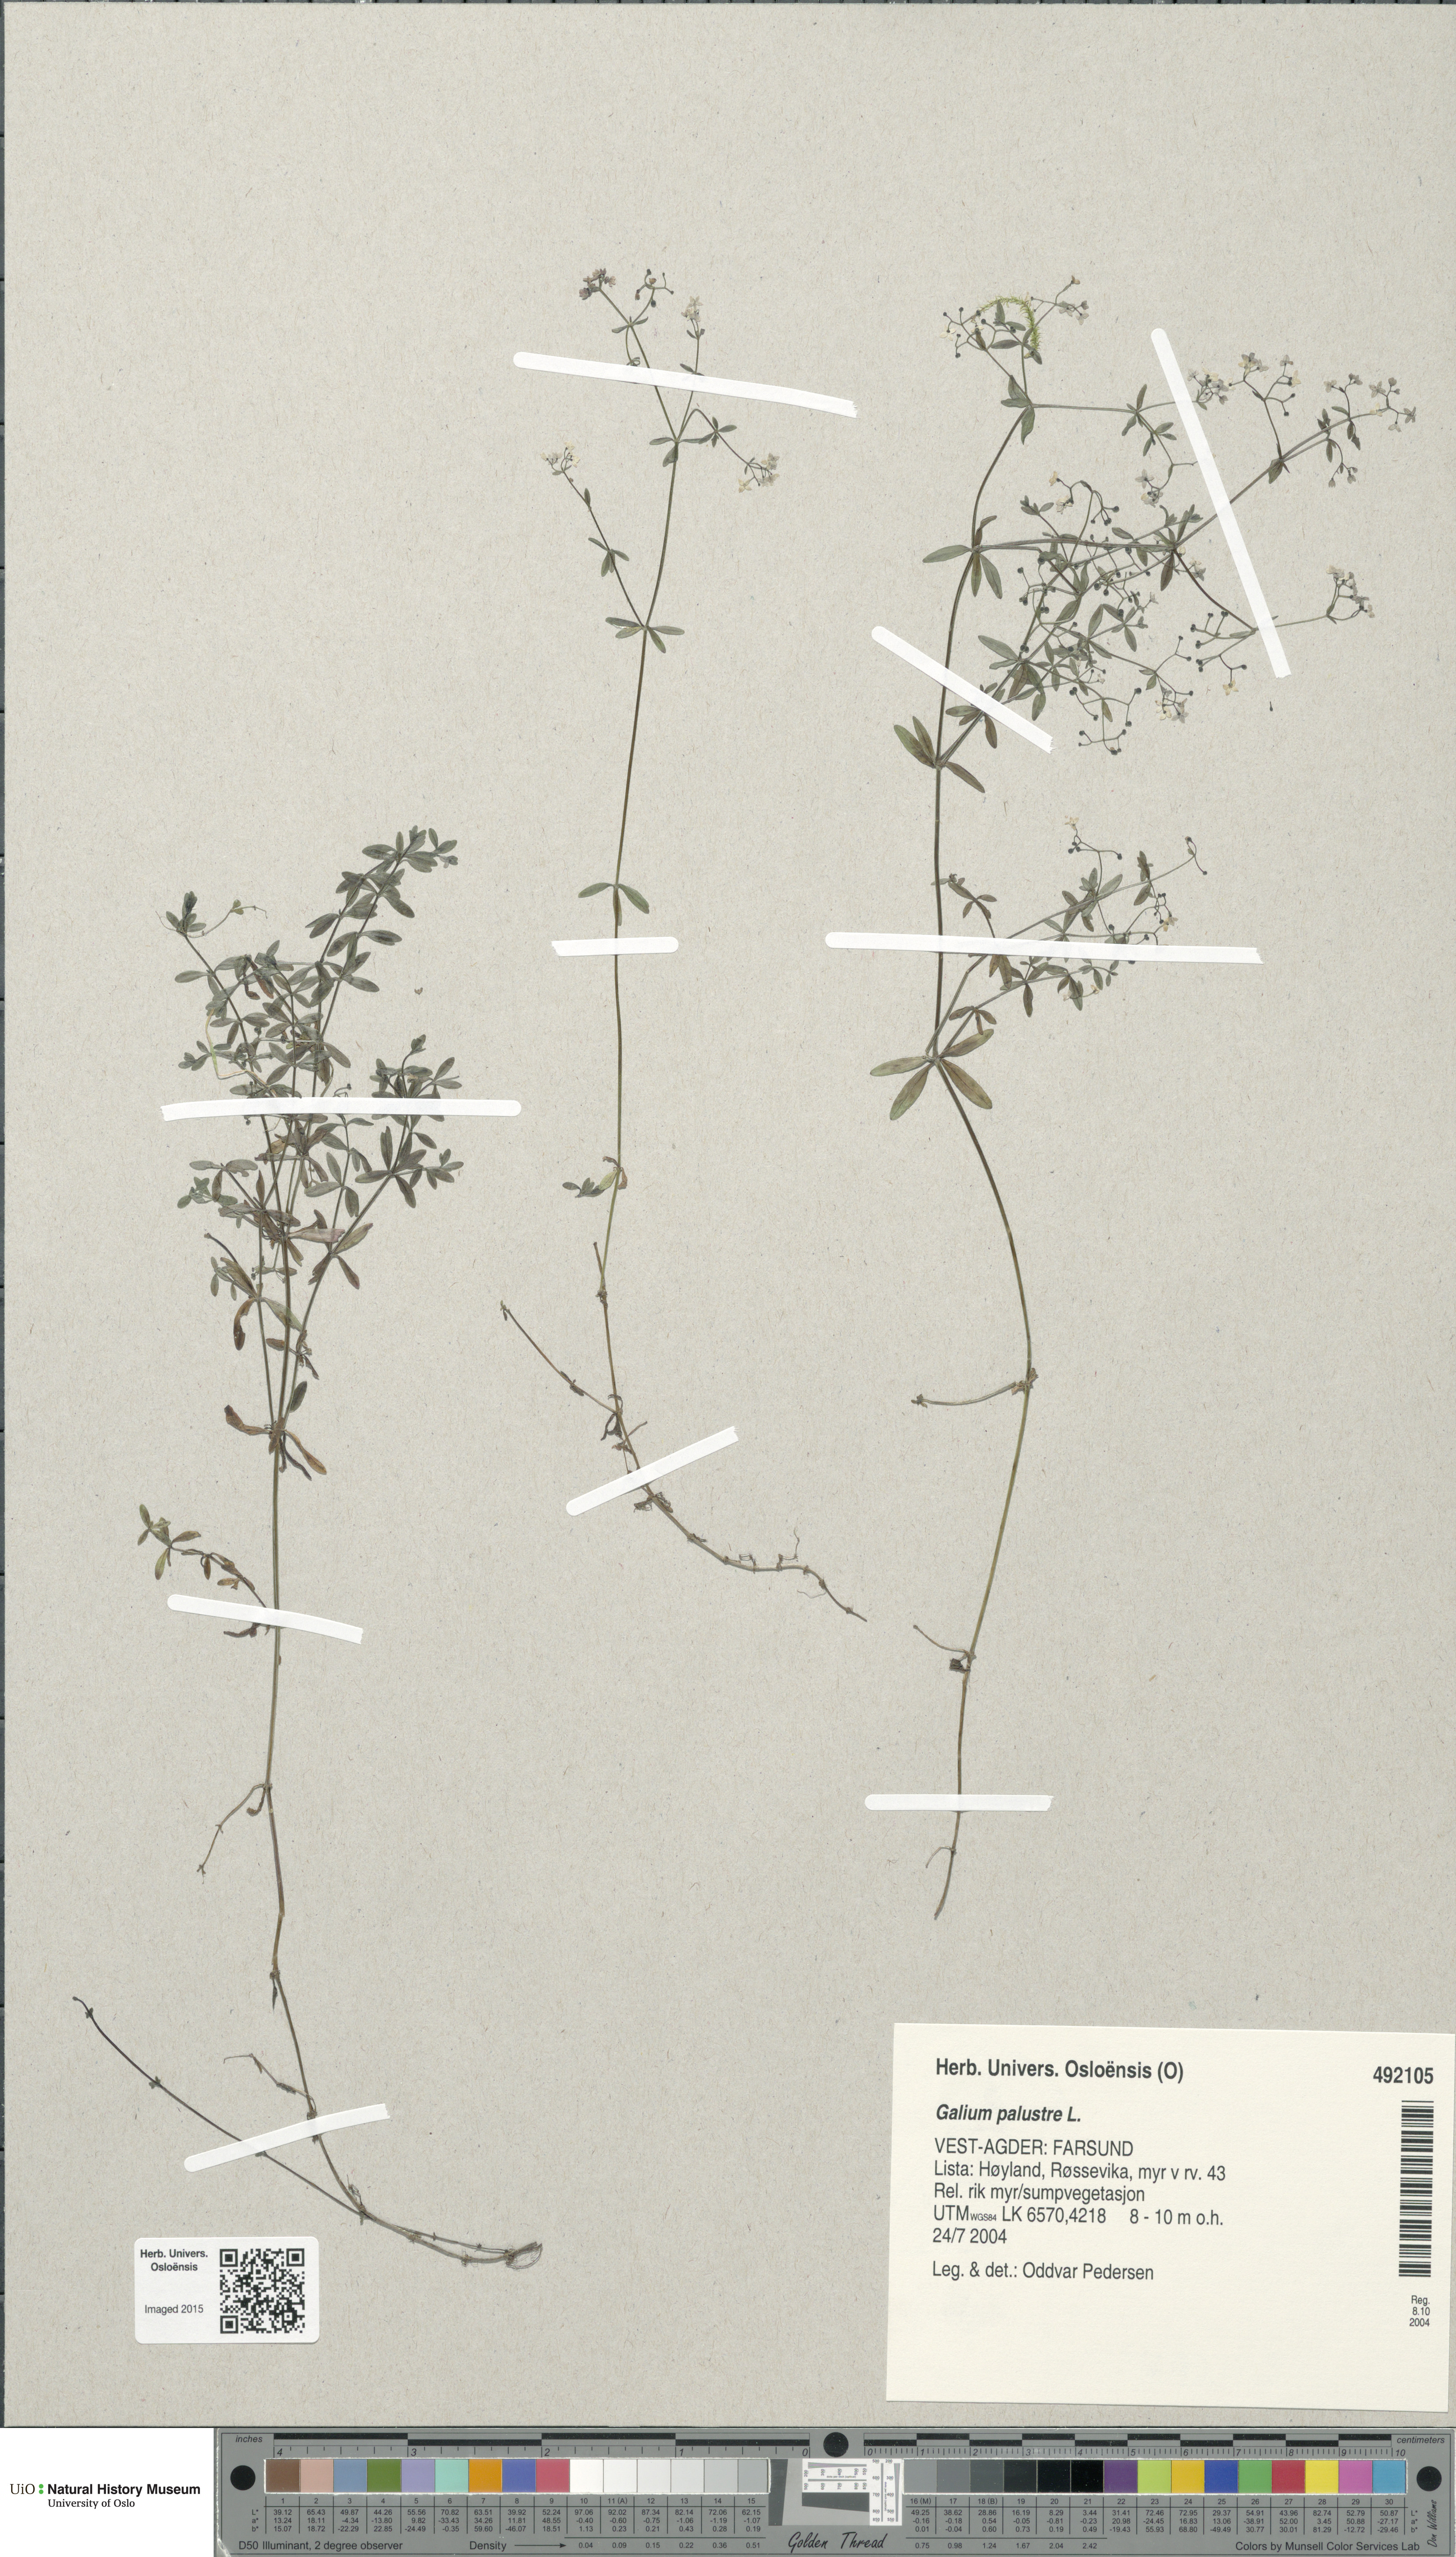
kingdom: Plantae
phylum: Tracheophyta
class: Magnoliopsida
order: Gentianales
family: Rubiaceae
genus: Galium
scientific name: Galium palustre
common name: Common marsh-bedstraw
